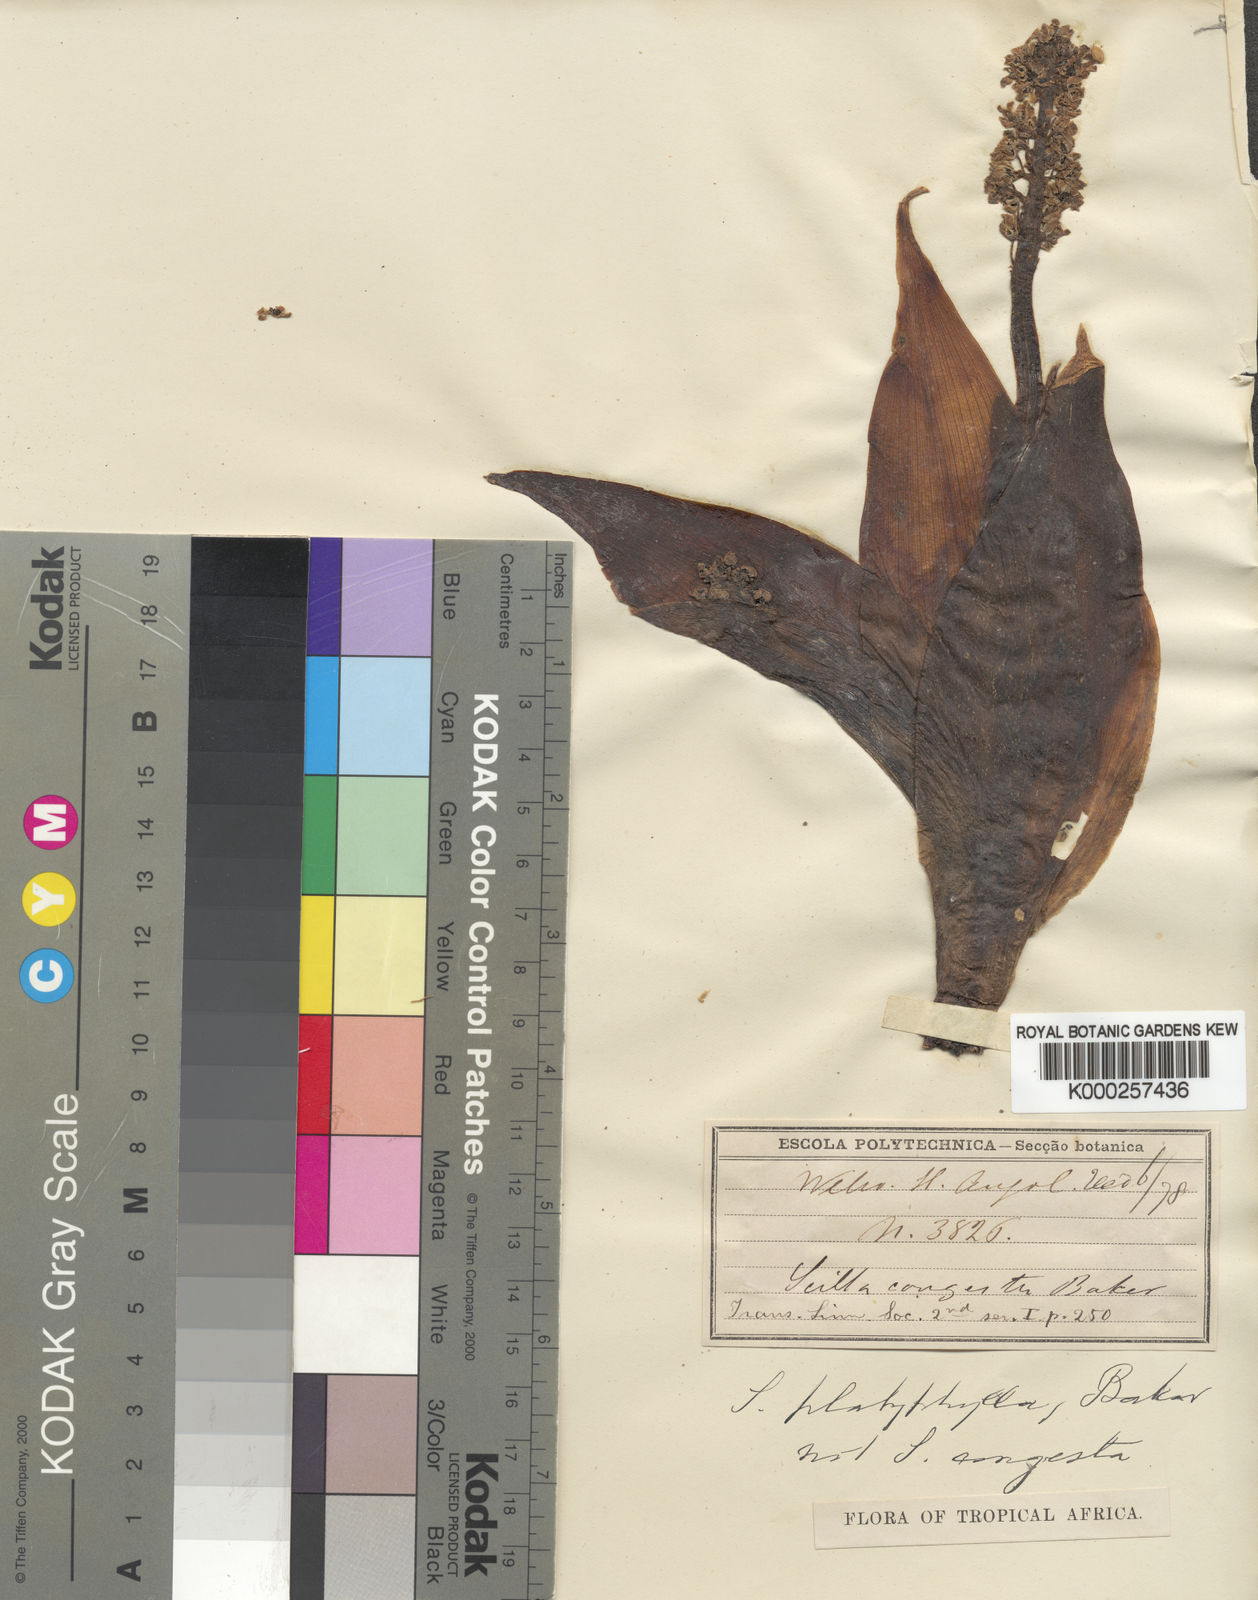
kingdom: Plantae
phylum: Tracheophyta
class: Liliopsida
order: Asparagales
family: Asparagaceae
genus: Scilla
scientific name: Scilla platyphylla
